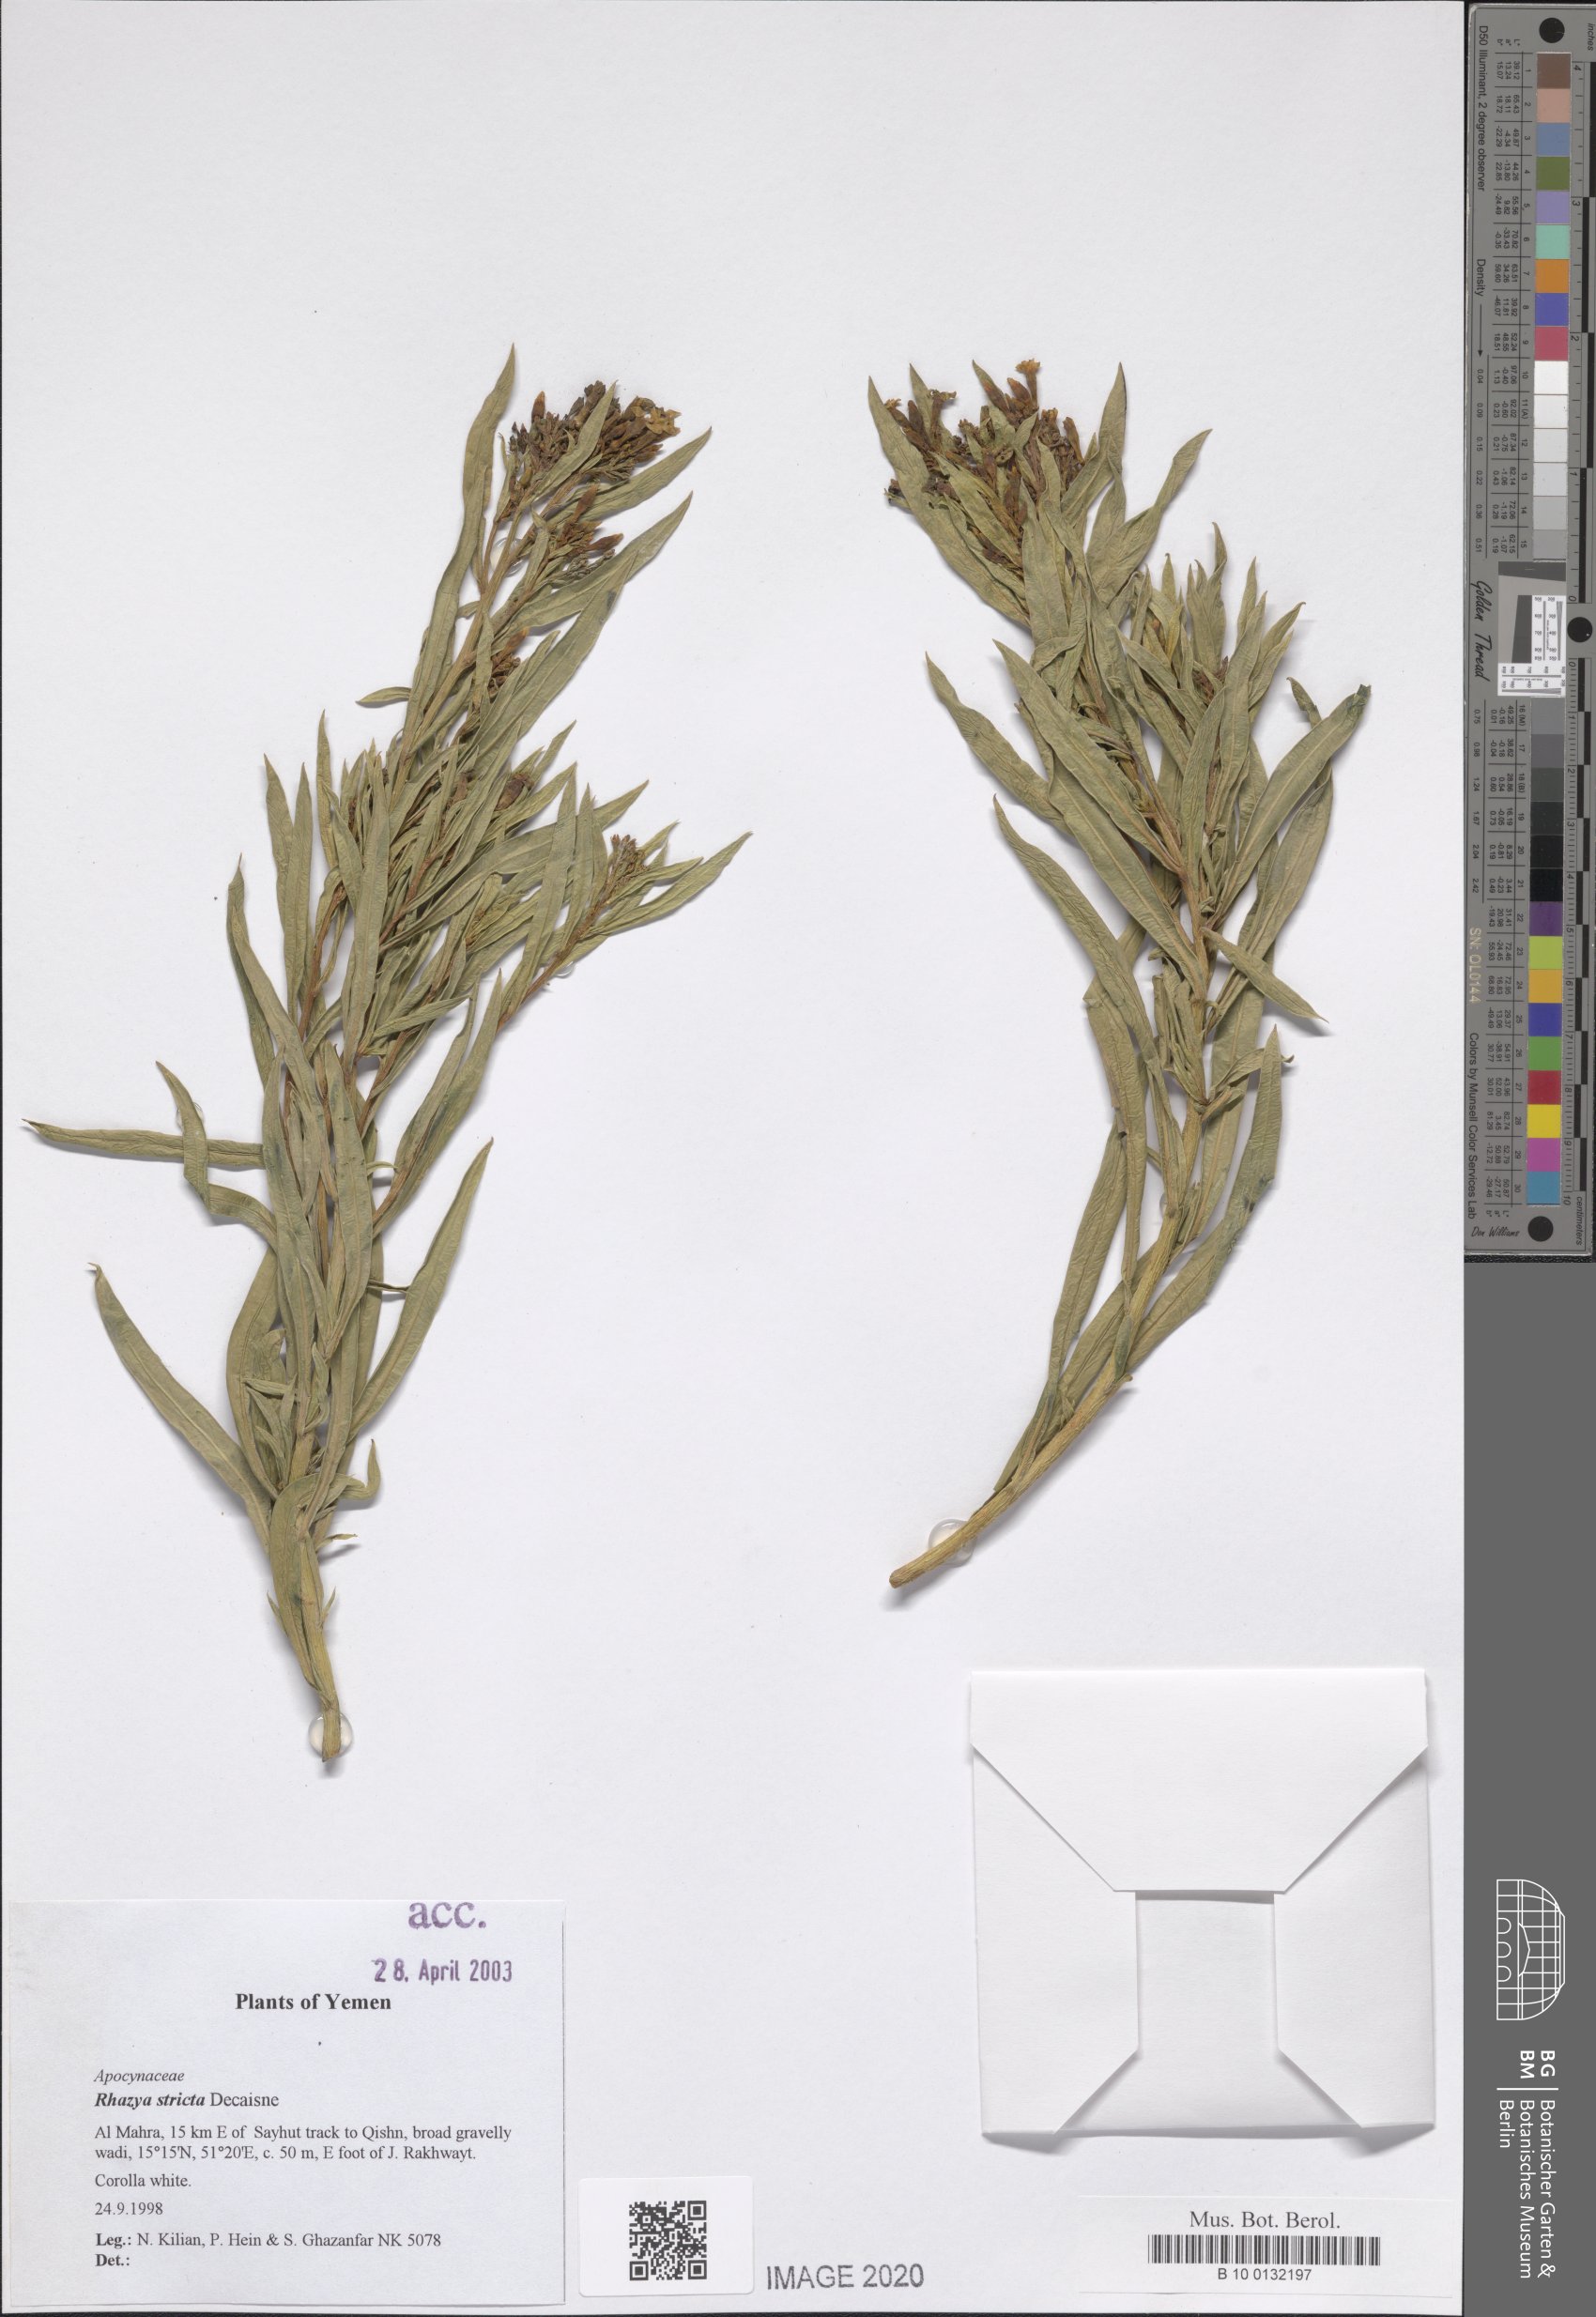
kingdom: Plantae
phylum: Tracheophyta
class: Magnoliopsida
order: Gentianales
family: Apocynaceae
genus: Rhazya
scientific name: Rhazya stricta
